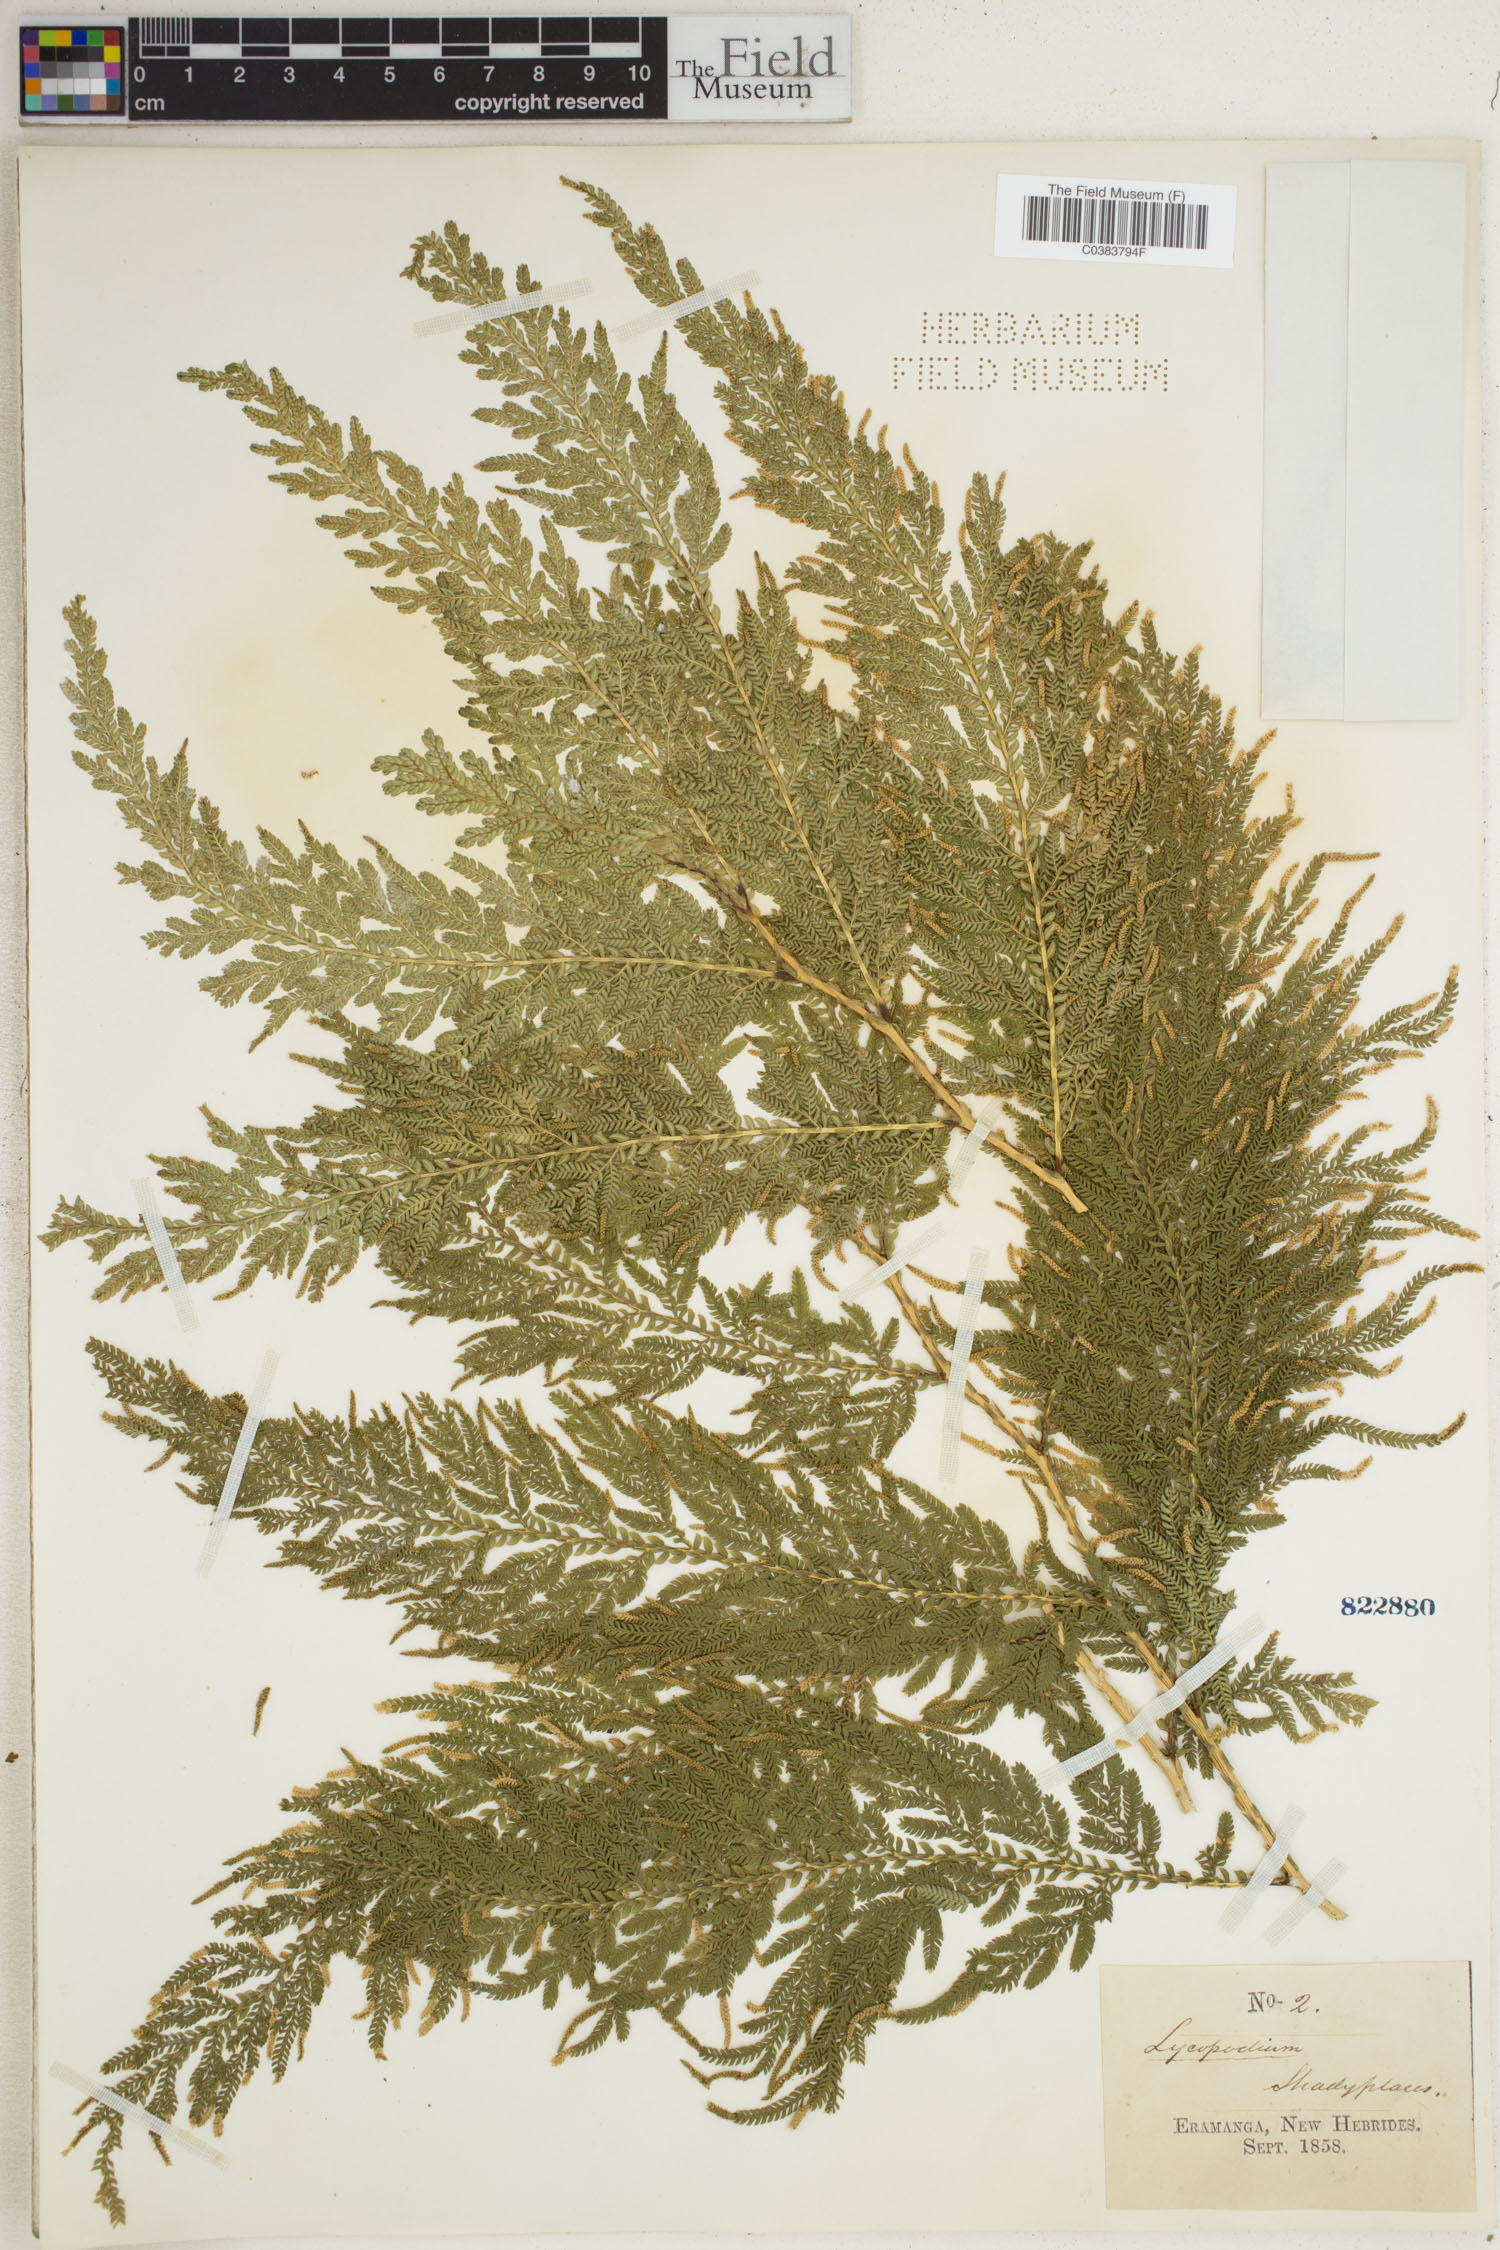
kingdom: Plantae
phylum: Tracheophyta
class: Lycopodiopsida
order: Selaginellales
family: Selaginellaceae
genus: Selaginella
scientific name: Selaginella
